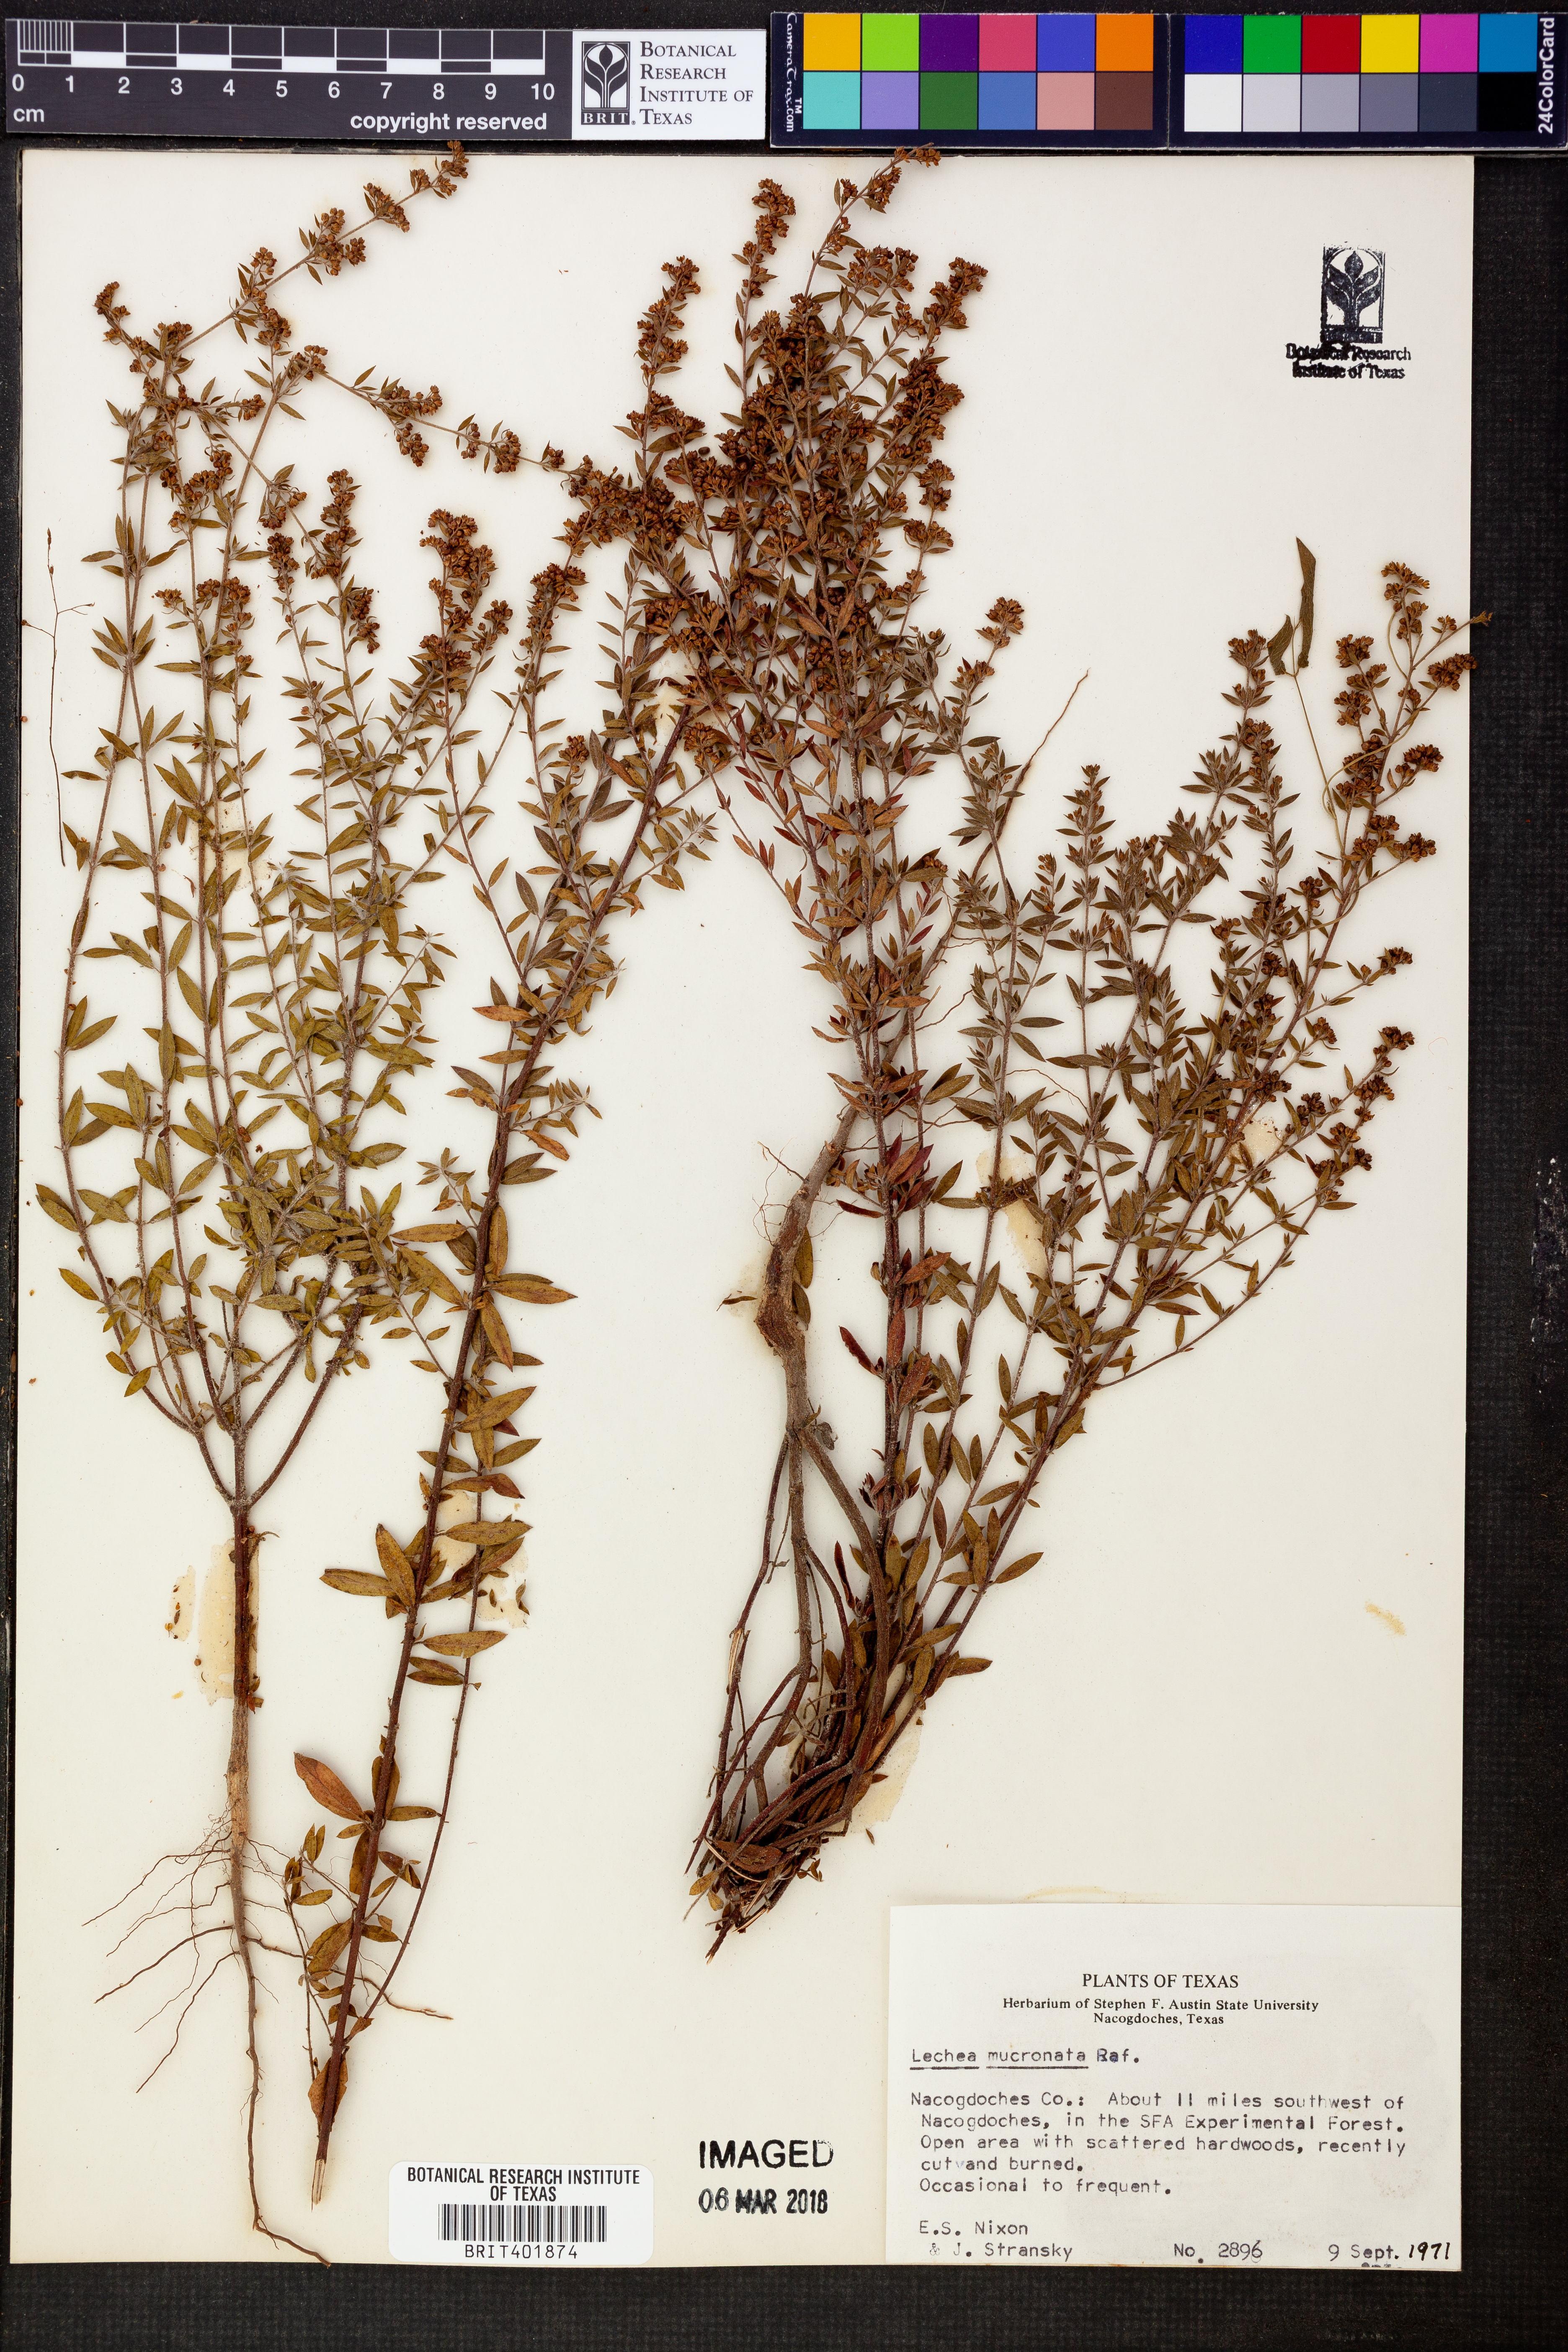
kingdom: Plantae
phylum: Tracheophyta
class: Magnoliopsida
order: Malvales
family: Cistaceae
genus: Lechea
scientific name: Lechea mucronata
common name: Hairy pinweed
